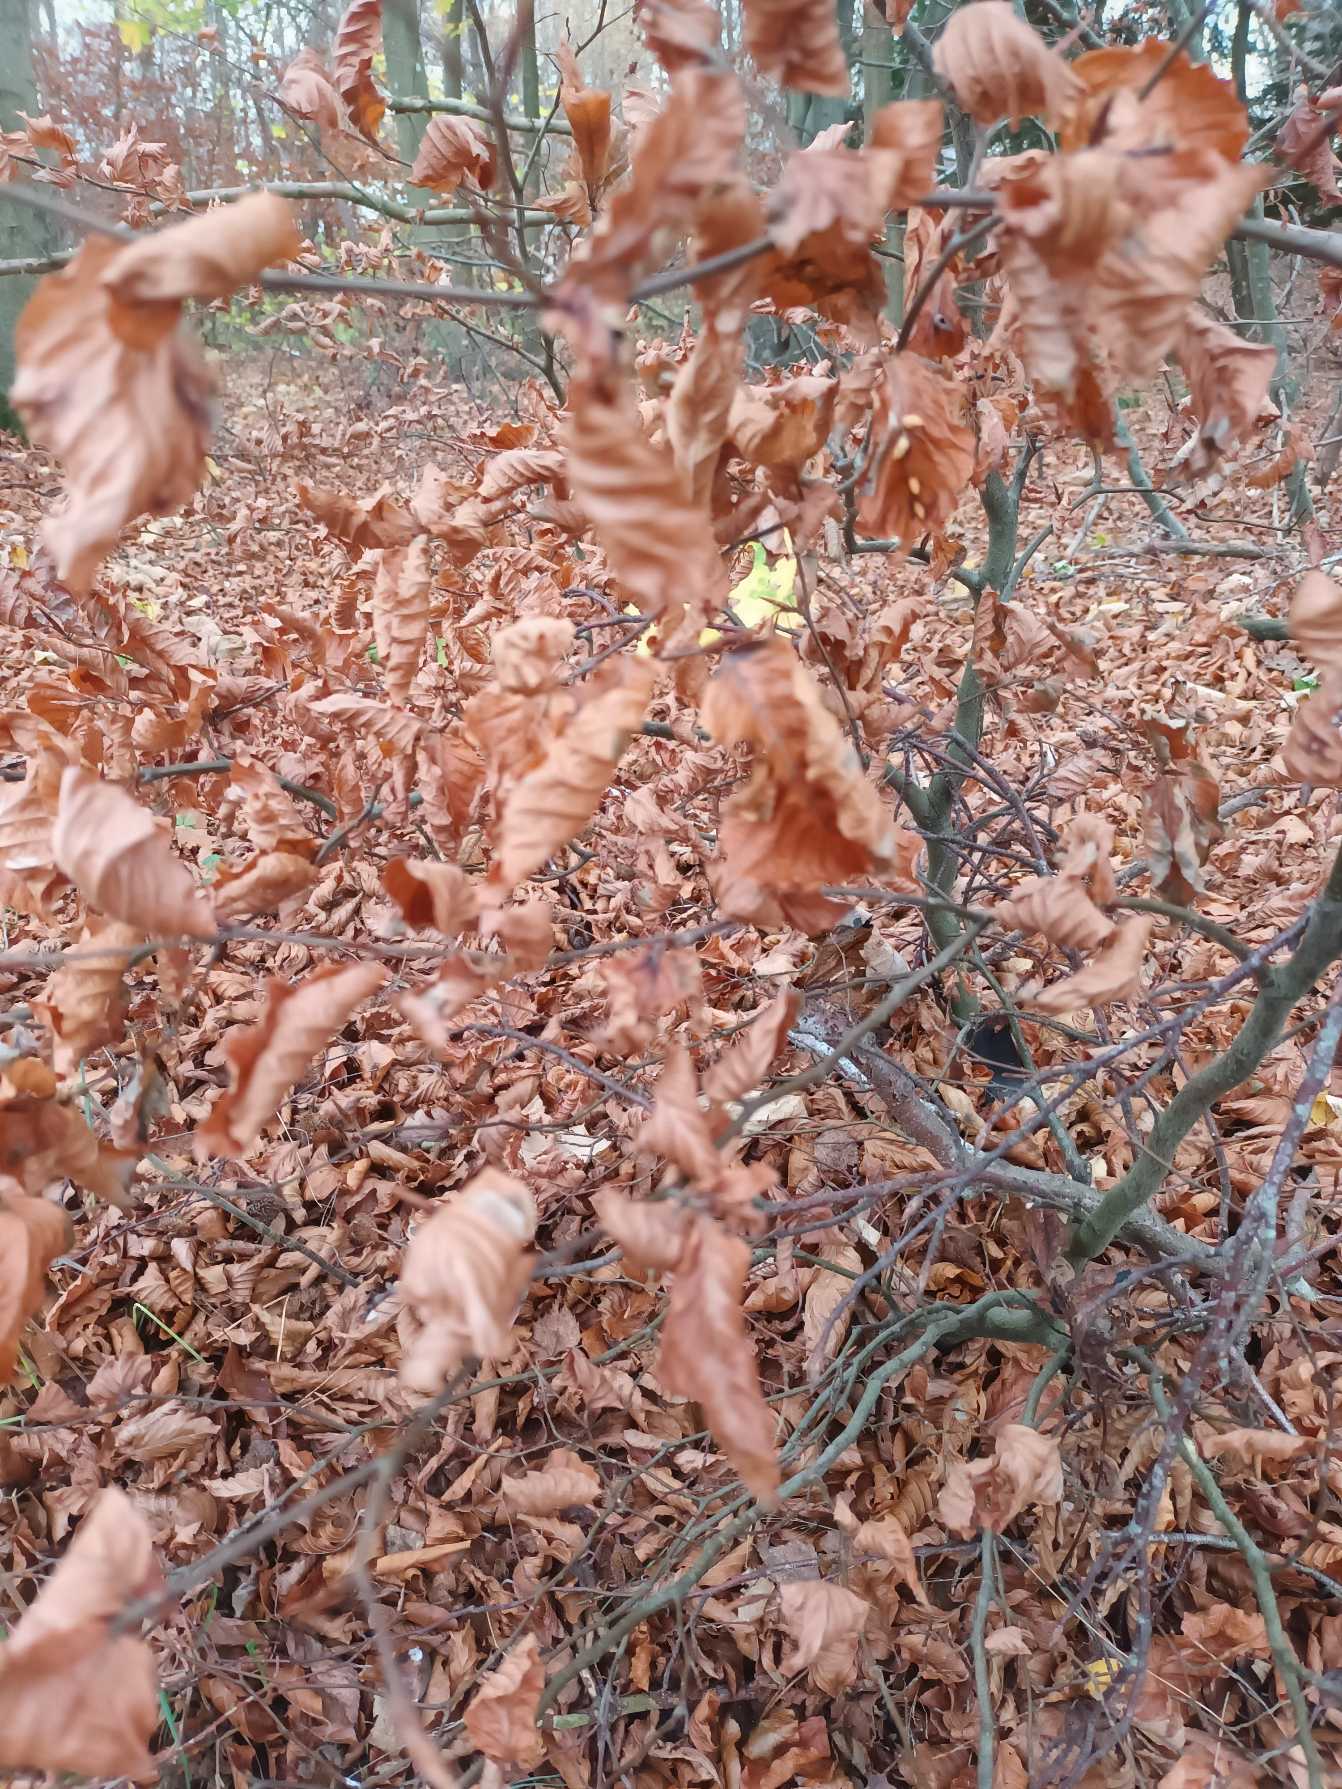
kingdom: Plantae
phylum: Tracheophyta
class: Magnoliopsida
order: Fagales
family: Fagaceae
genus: Fagus
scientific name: Fagus sylvatica
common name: Bøg
